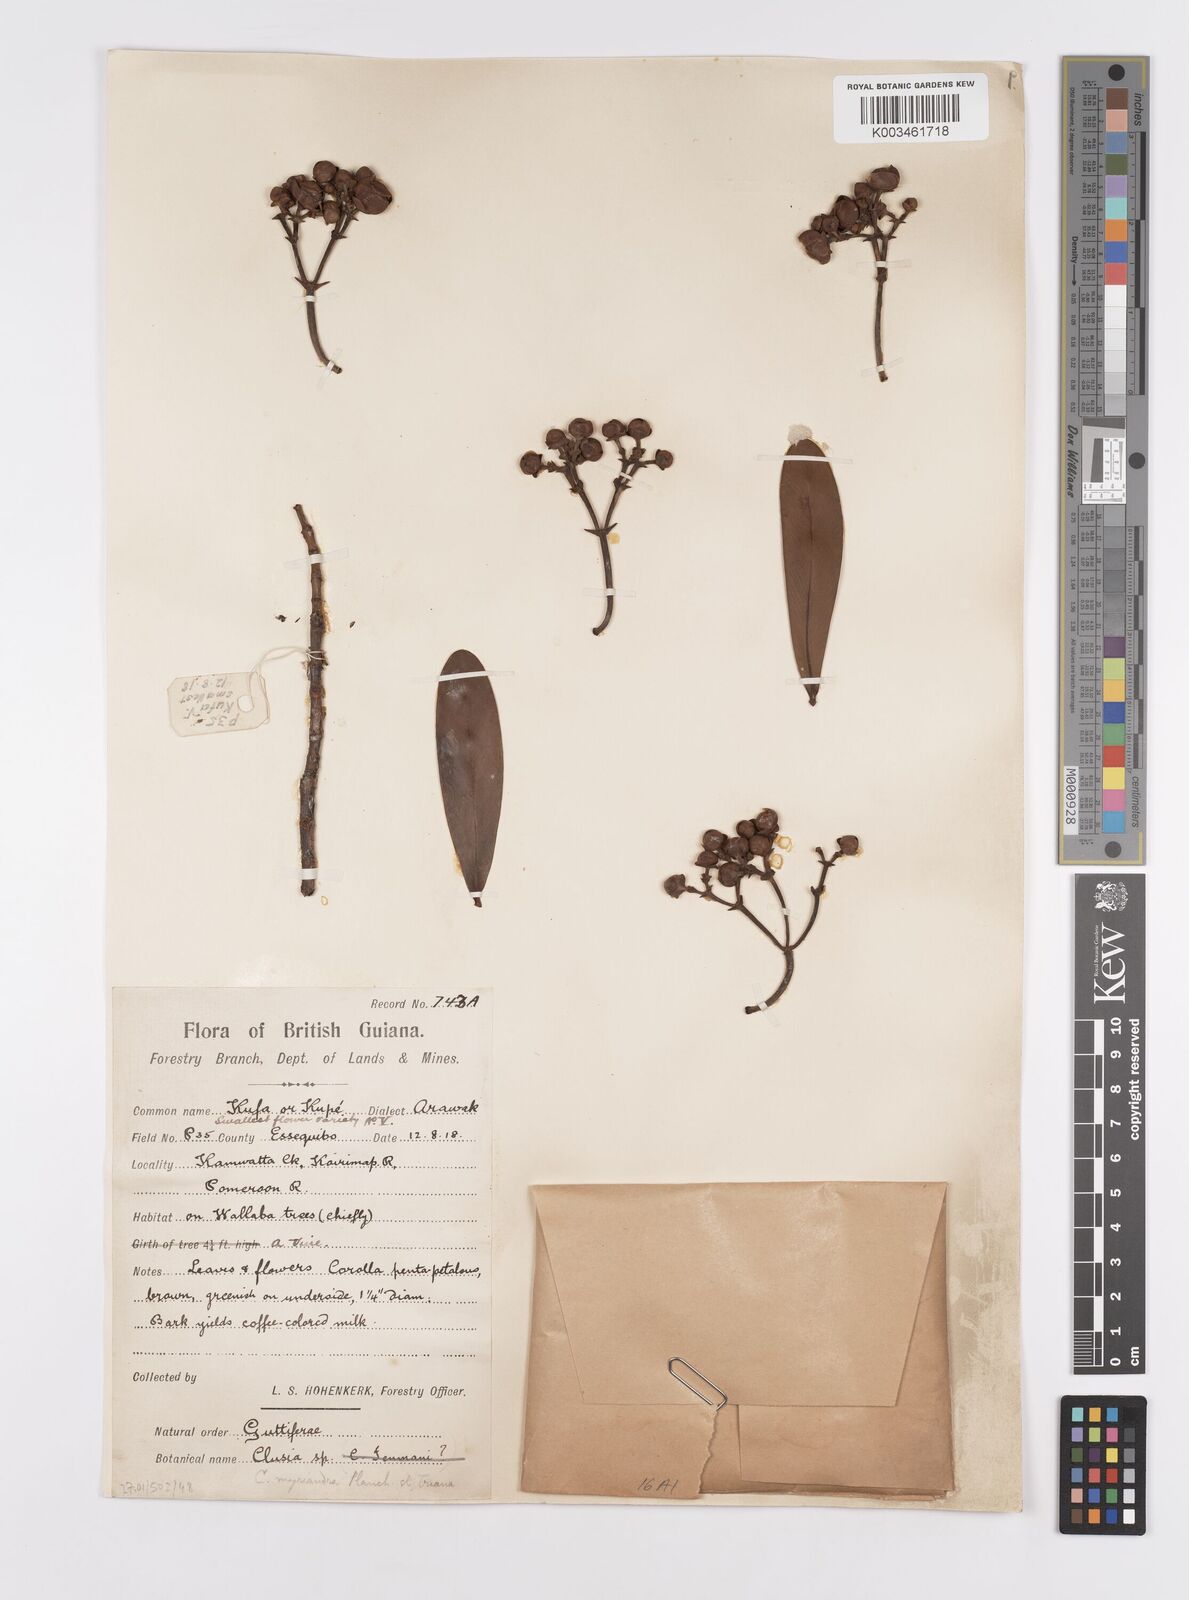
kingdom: Plantae
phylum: Tracheophyta
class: Magnoliopsida
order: Malpighiales
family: Clusiaceae
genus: Clusia
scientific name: Clusia myriandra
